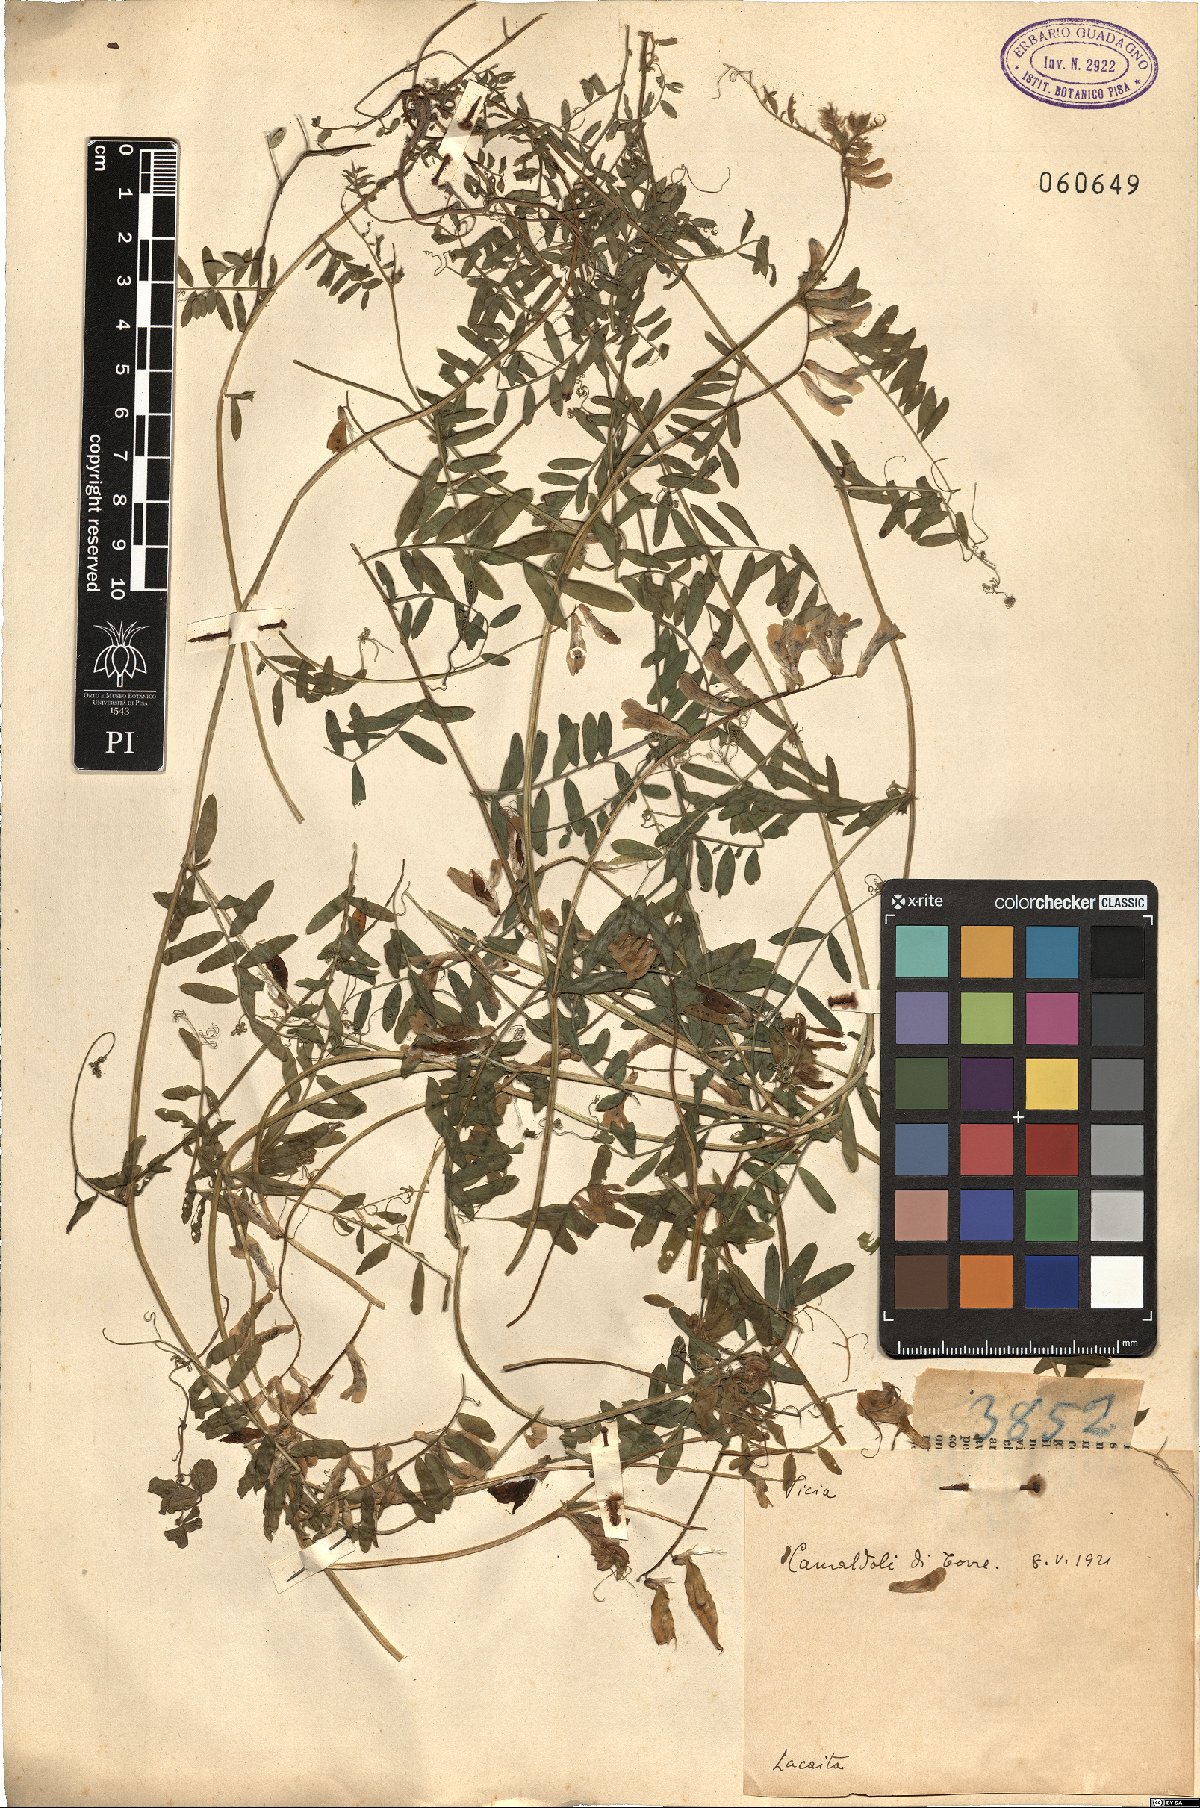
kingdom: Plantae
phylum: Tracheophyta
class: Magnoliopsida
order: Fabales
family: Fabaceae
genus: Vicia
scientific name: Vicia
